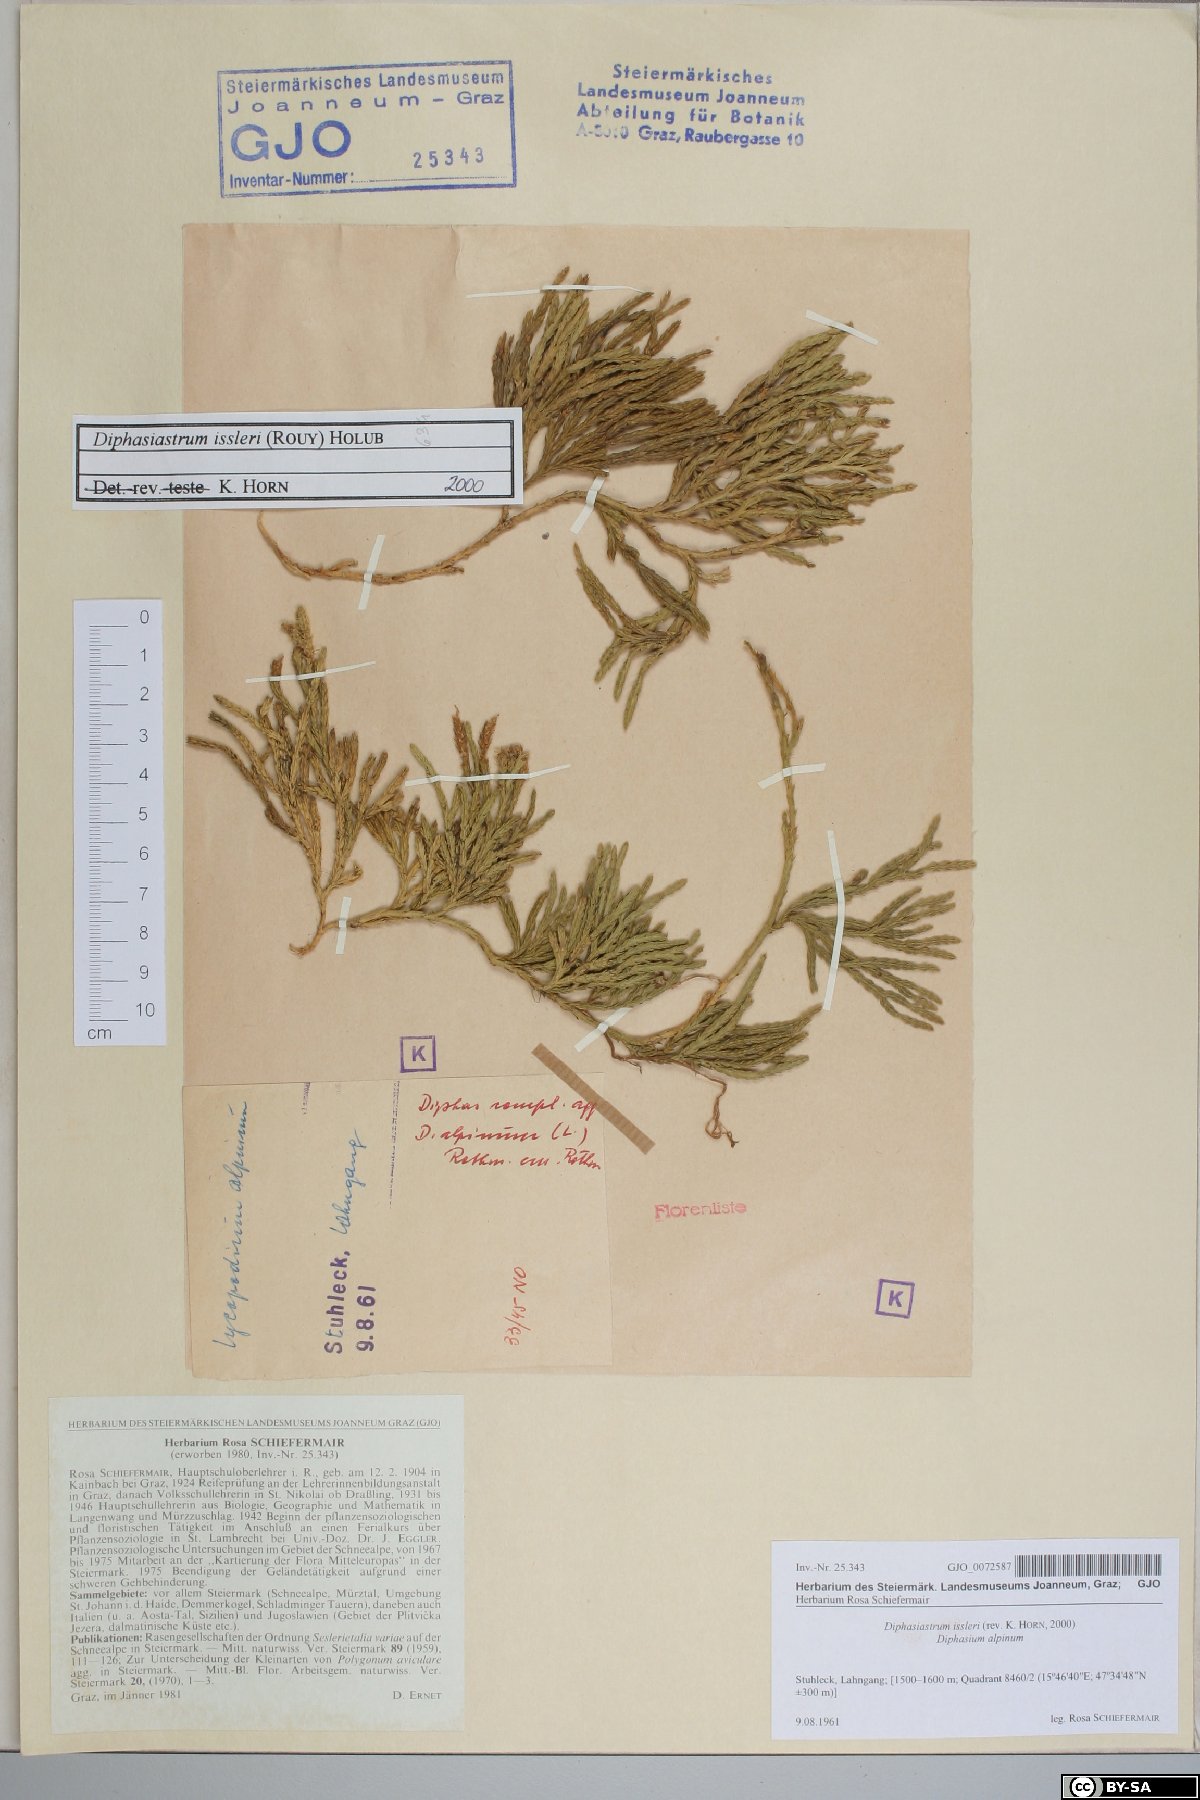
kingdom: Plantae
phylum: Tracheophyta
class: Lycopodiopsida
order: Lycopodiales
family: Lycopodiaceae
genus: Diphasiastrum
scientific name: Diphasiastrum issleri
